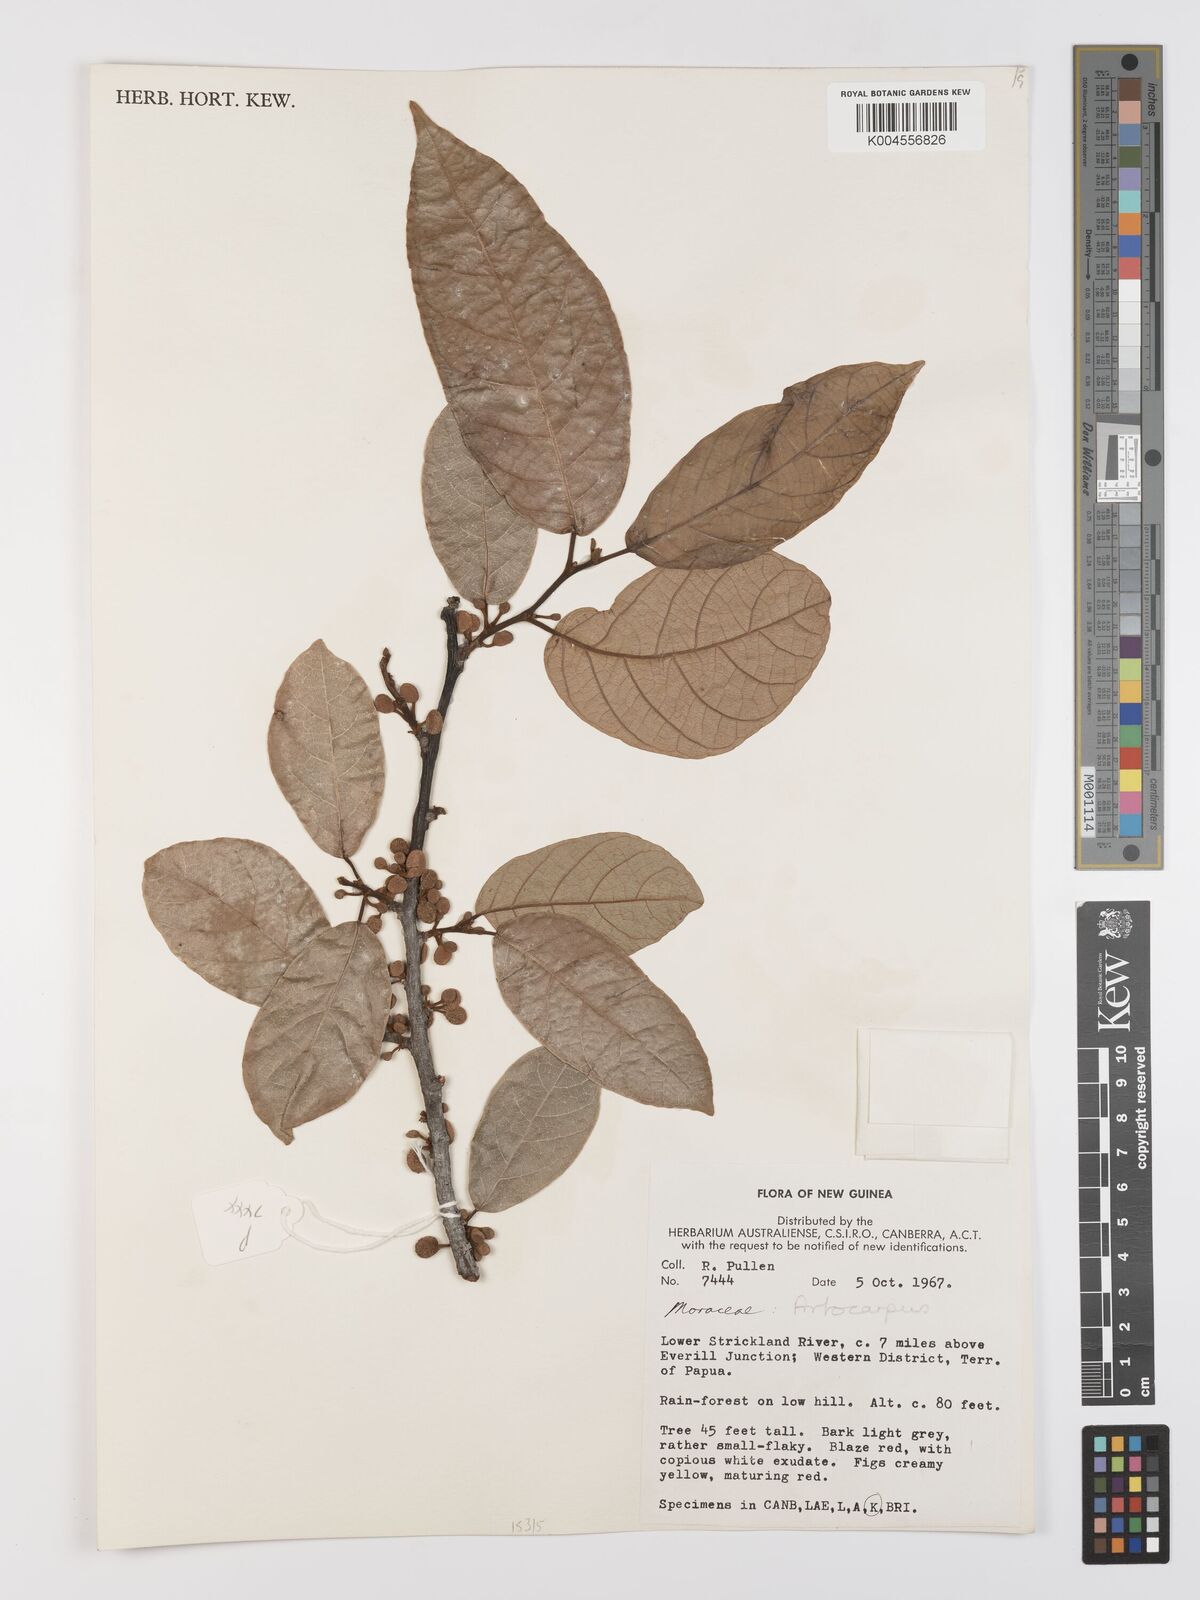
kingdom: Plantae
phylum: Tracheophyta
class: Magnoliopsida
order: Rosales
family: Moraceae
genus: Artocarpus
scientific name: Artocarpus
